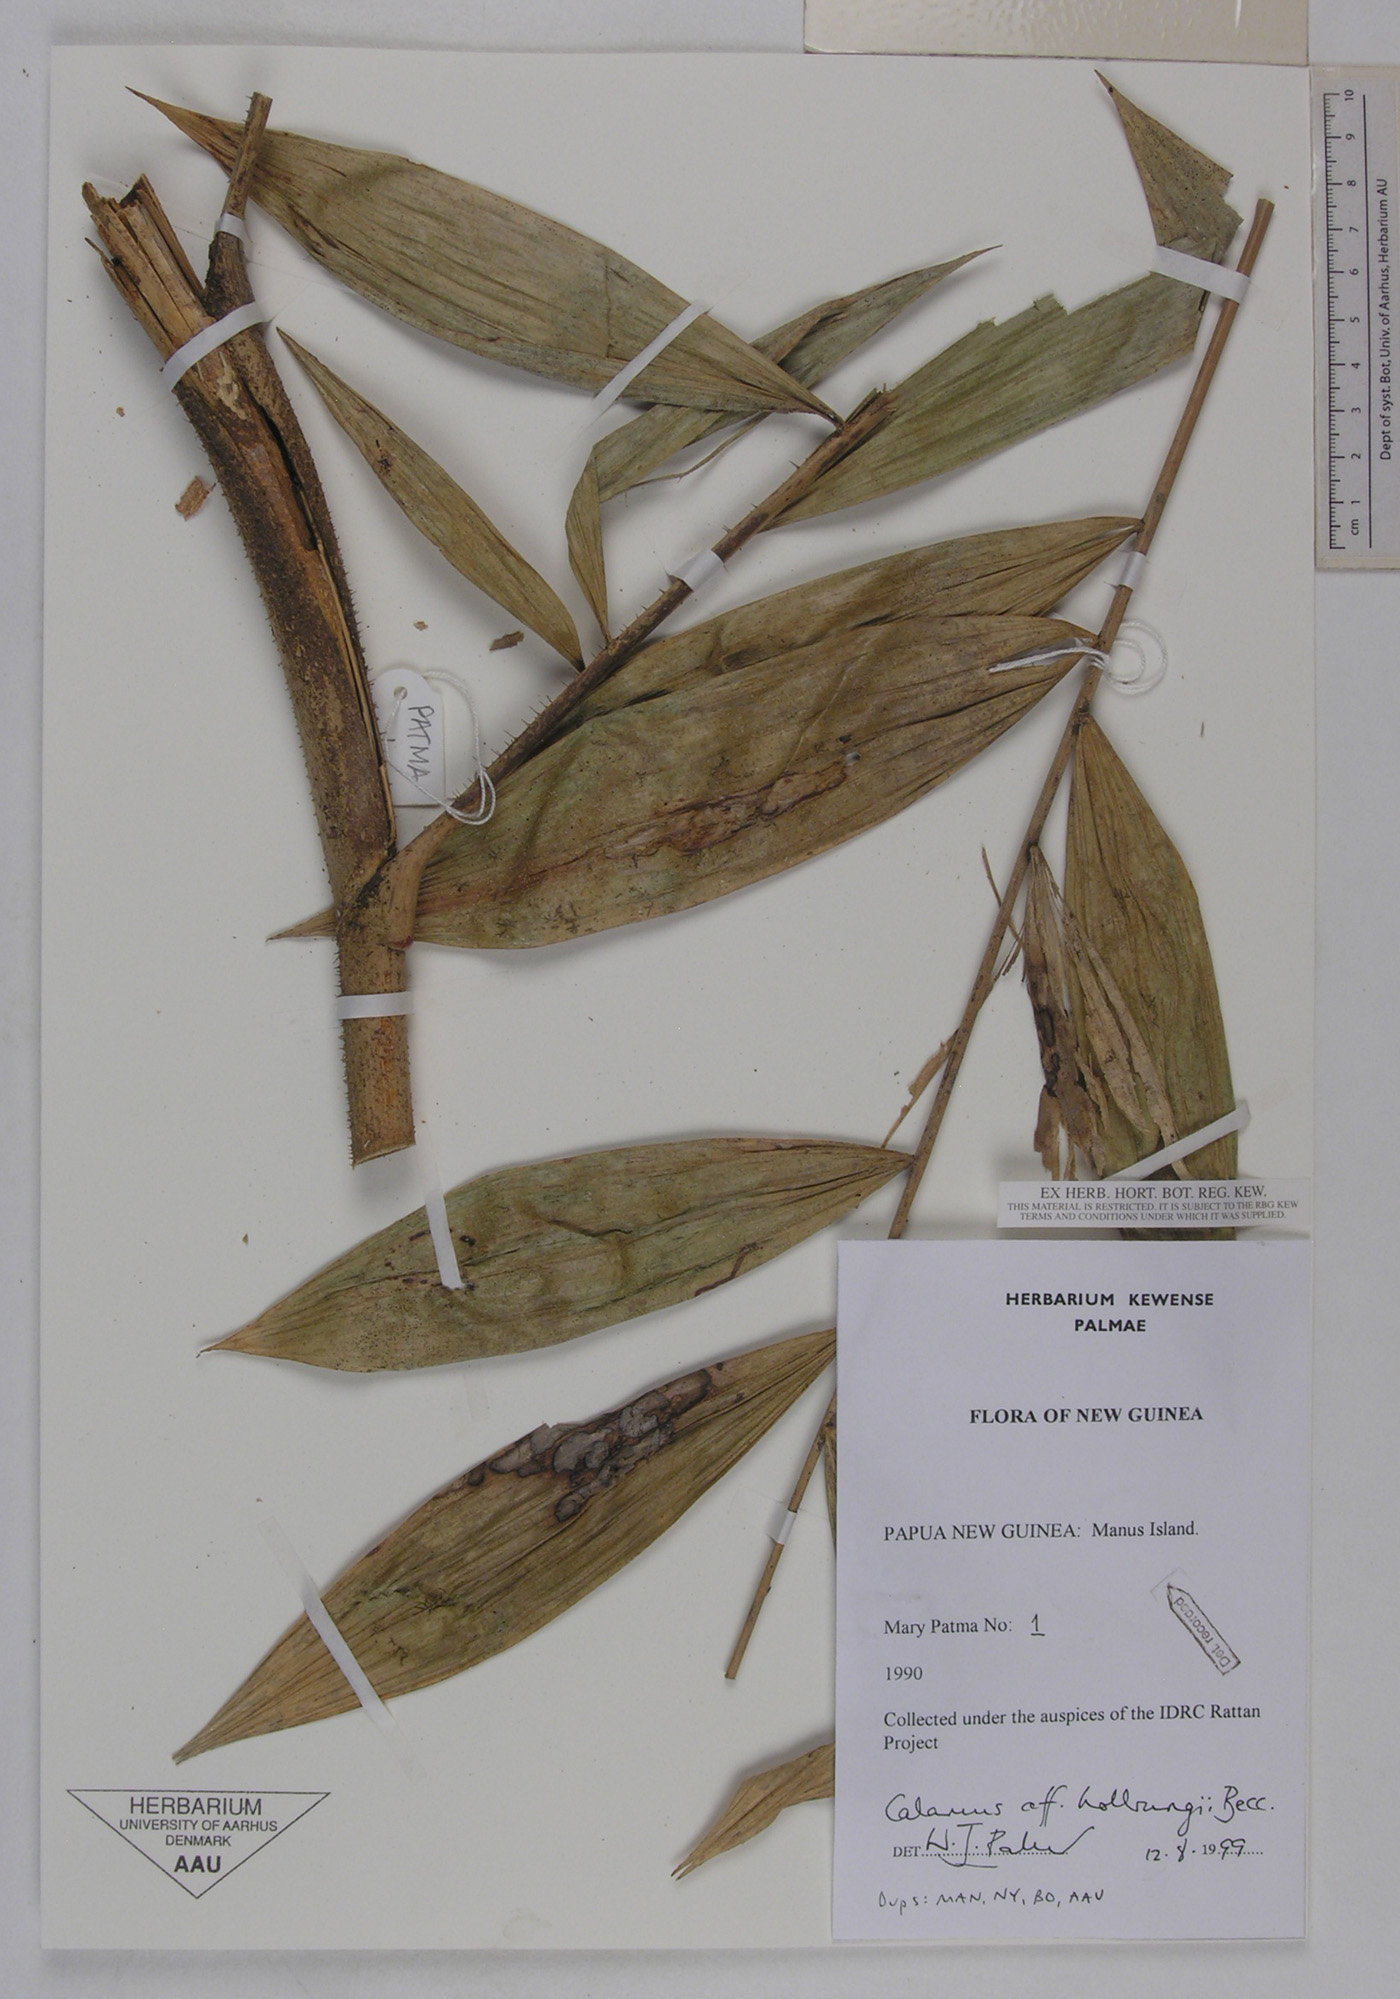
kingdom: Plantae
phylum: Tracheophyta
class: Liliopsida
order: Arecales
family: Arecaceae
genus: Calamus
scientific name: Calamus aruensis
